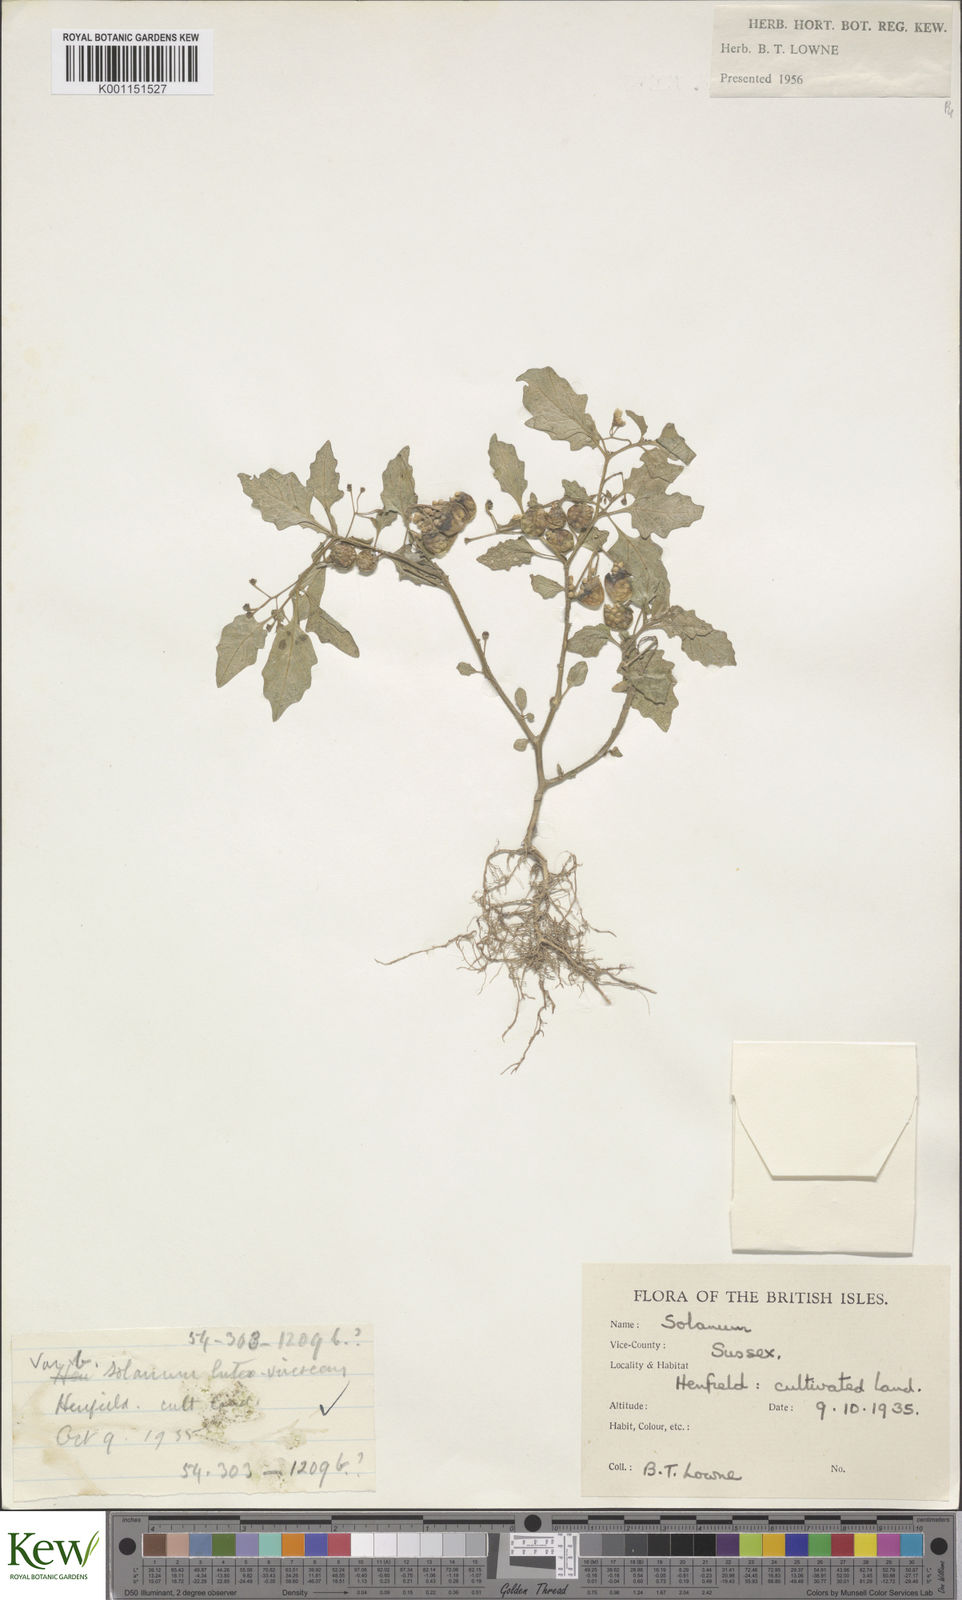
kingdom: Plantae
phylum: Tracheophyta
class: Magnoliopsida
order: Solanales
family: Solanaceae
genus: Solanum
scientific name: Solanum villosum
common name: Red nightshade
